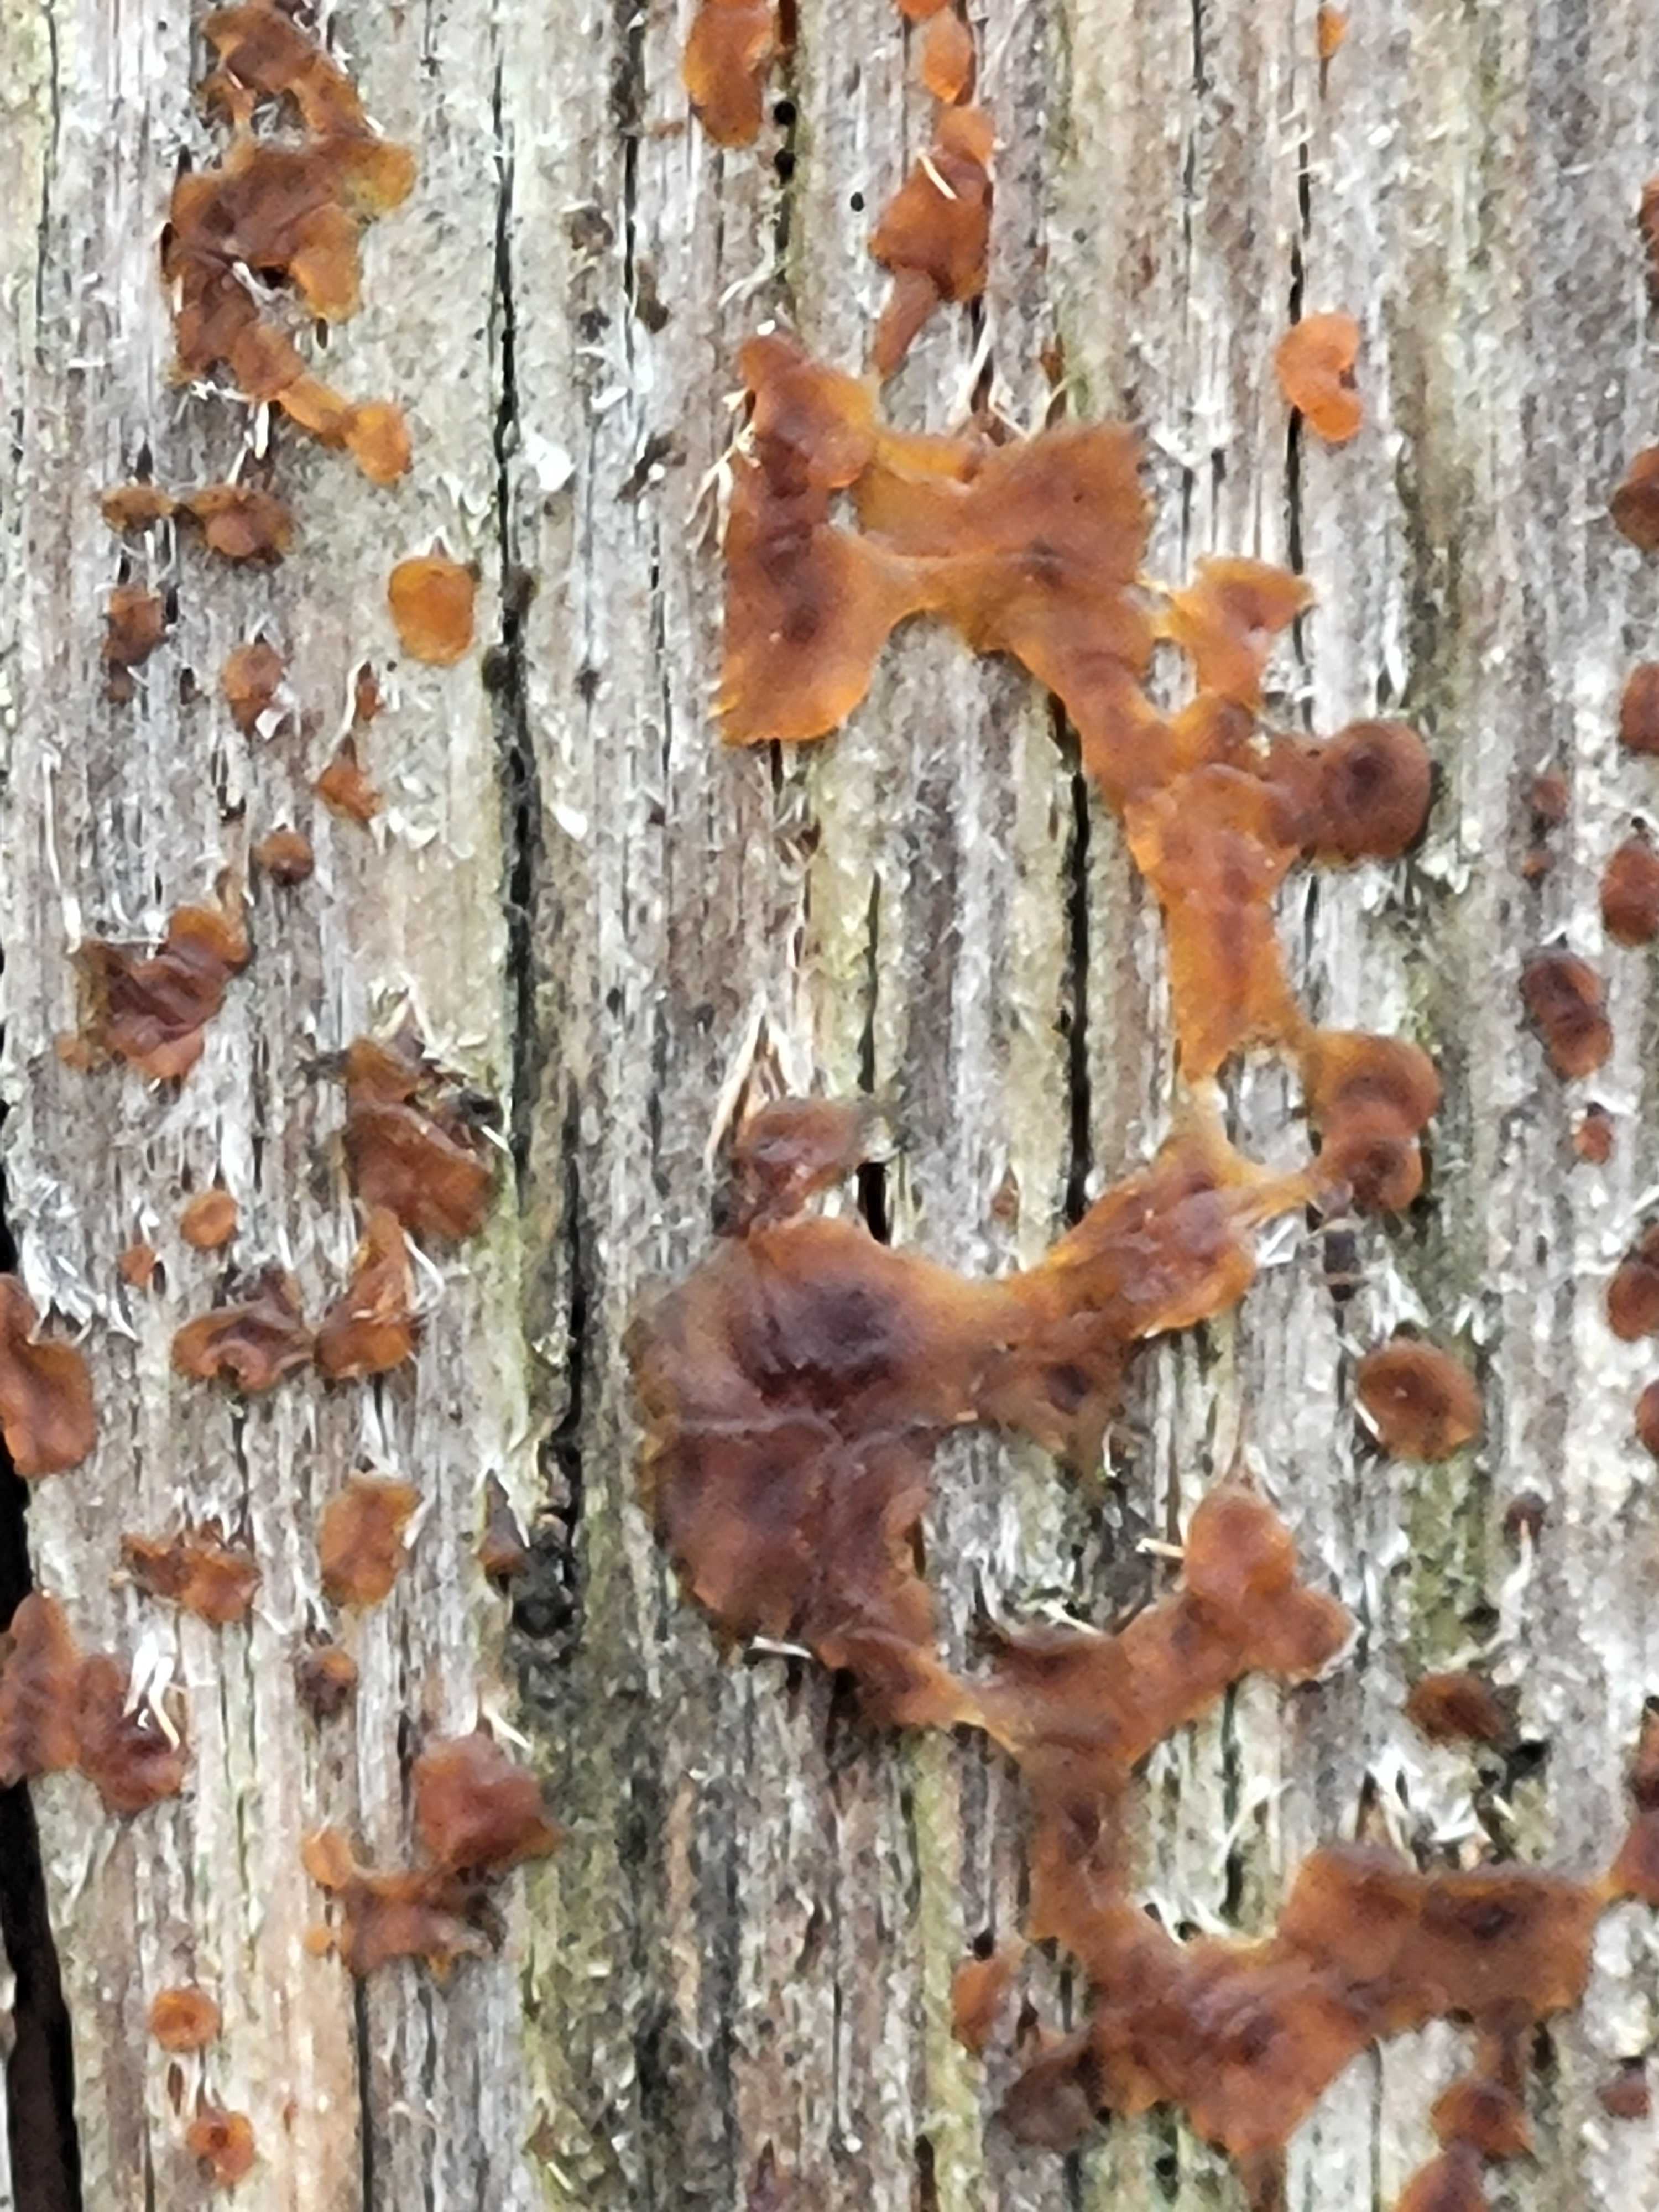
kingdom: Fungi
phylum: Basidiomycota
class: Dacrymycetes
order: Dacrymycetales
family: Dacrymycetaceae
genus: Dacrymyces
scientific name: Dacrymyces
